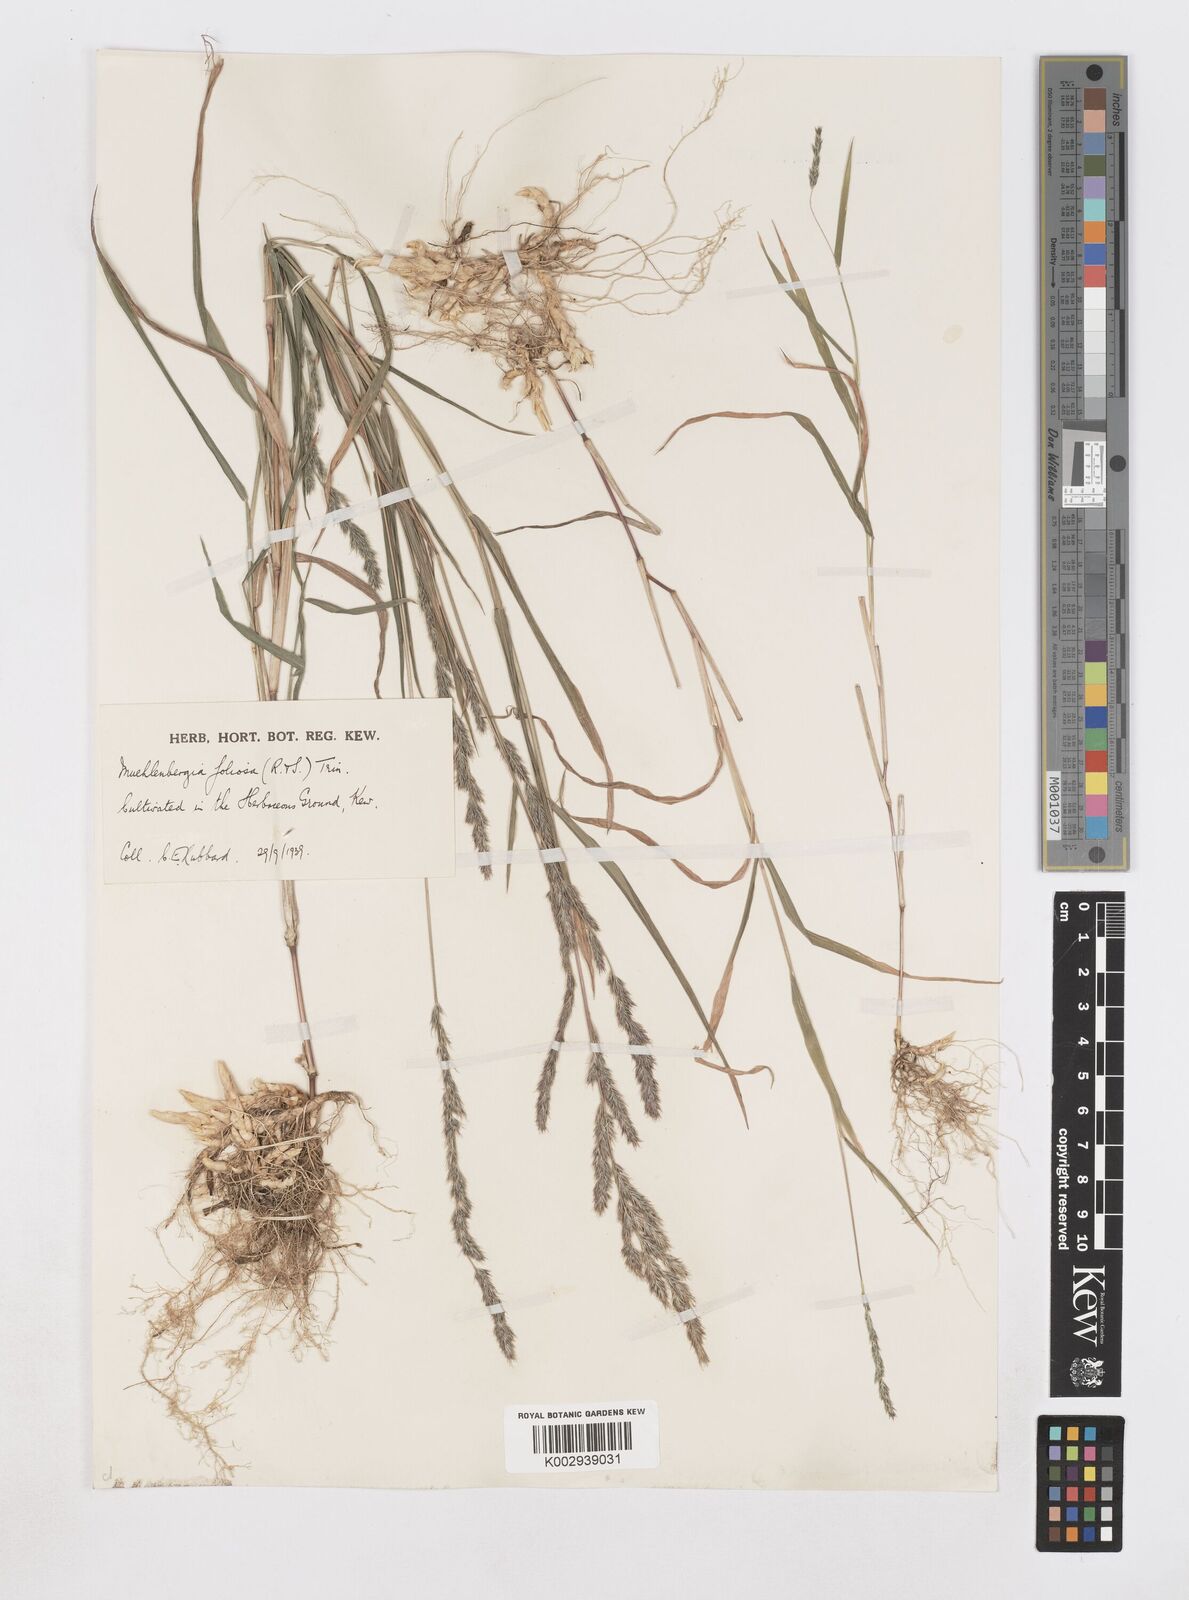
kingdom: Plantae
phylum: Tracheophyta
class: Liliopsida
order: Poales
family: Poaceae
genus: Muhlenbergia
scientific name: Muhlenbergia racemosa
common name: Green muhly
